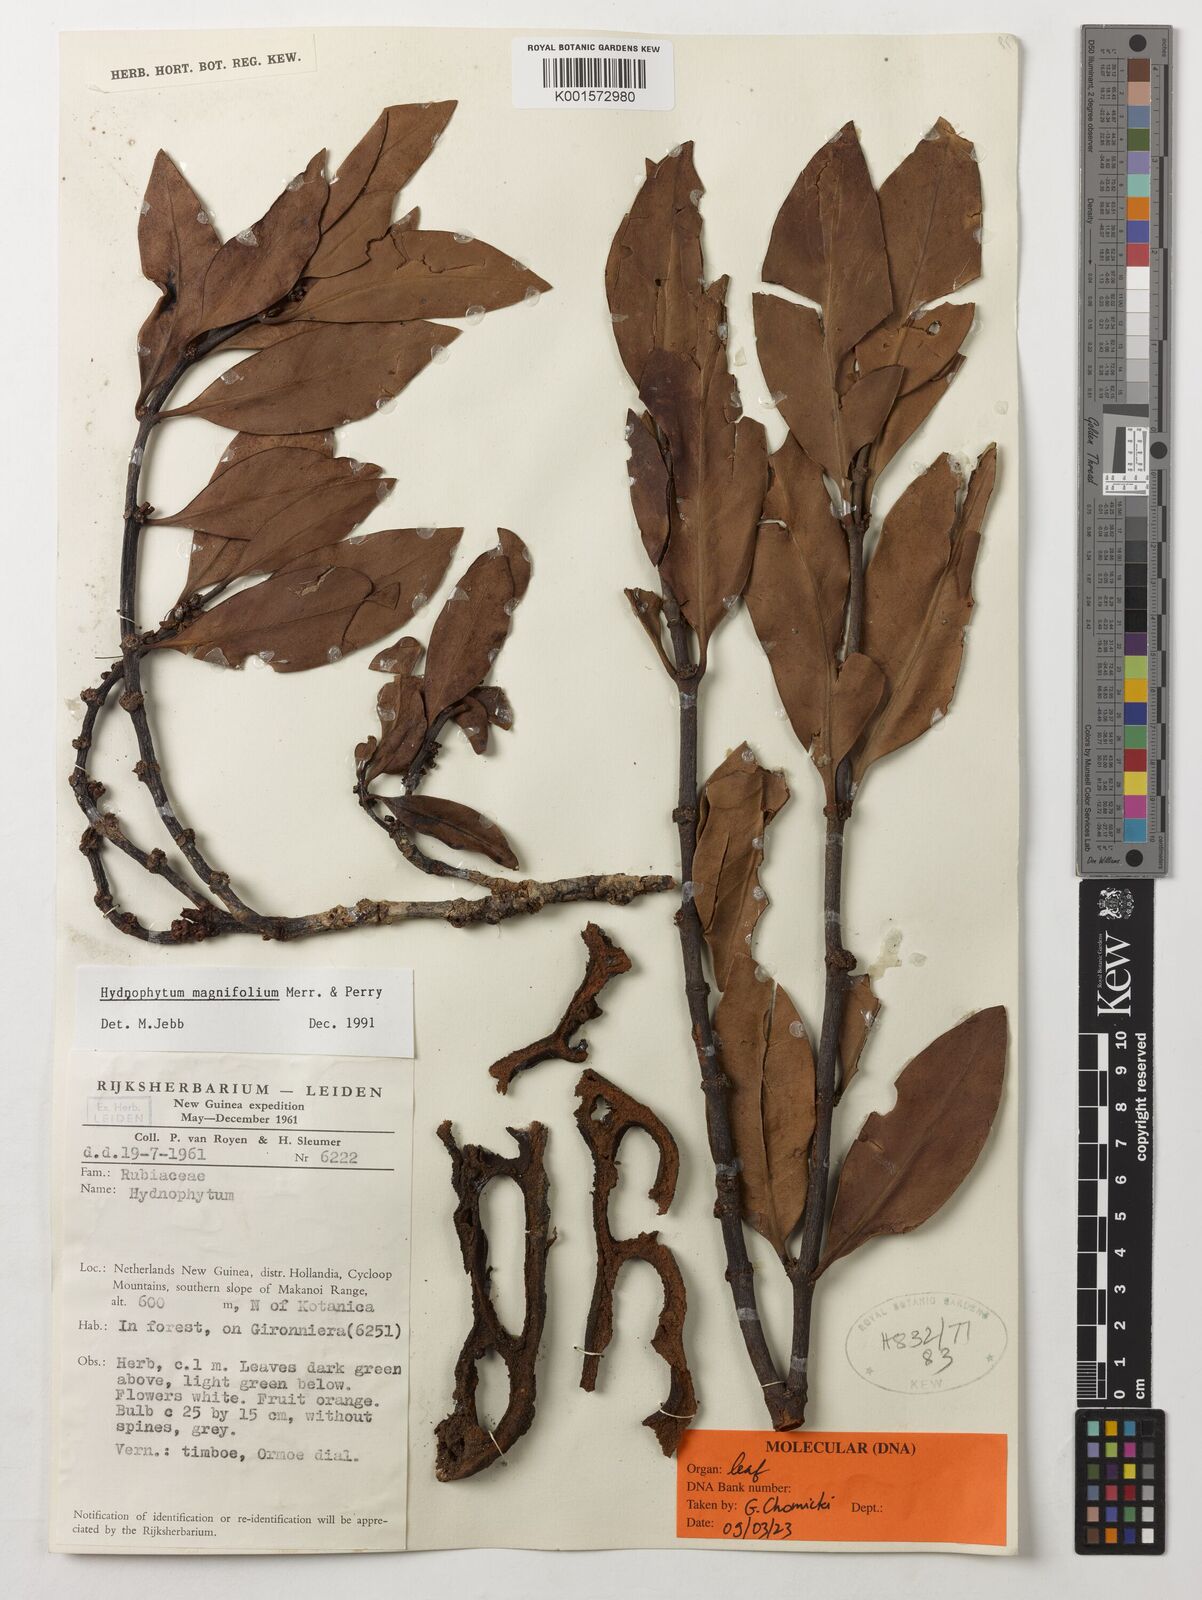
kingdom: Plantae
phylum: Tracheophyta
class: Magnoliopsida
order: Gentianales
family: Rubiaceae
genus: Hydnophytum
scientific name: Hydnophytum magnifolium
